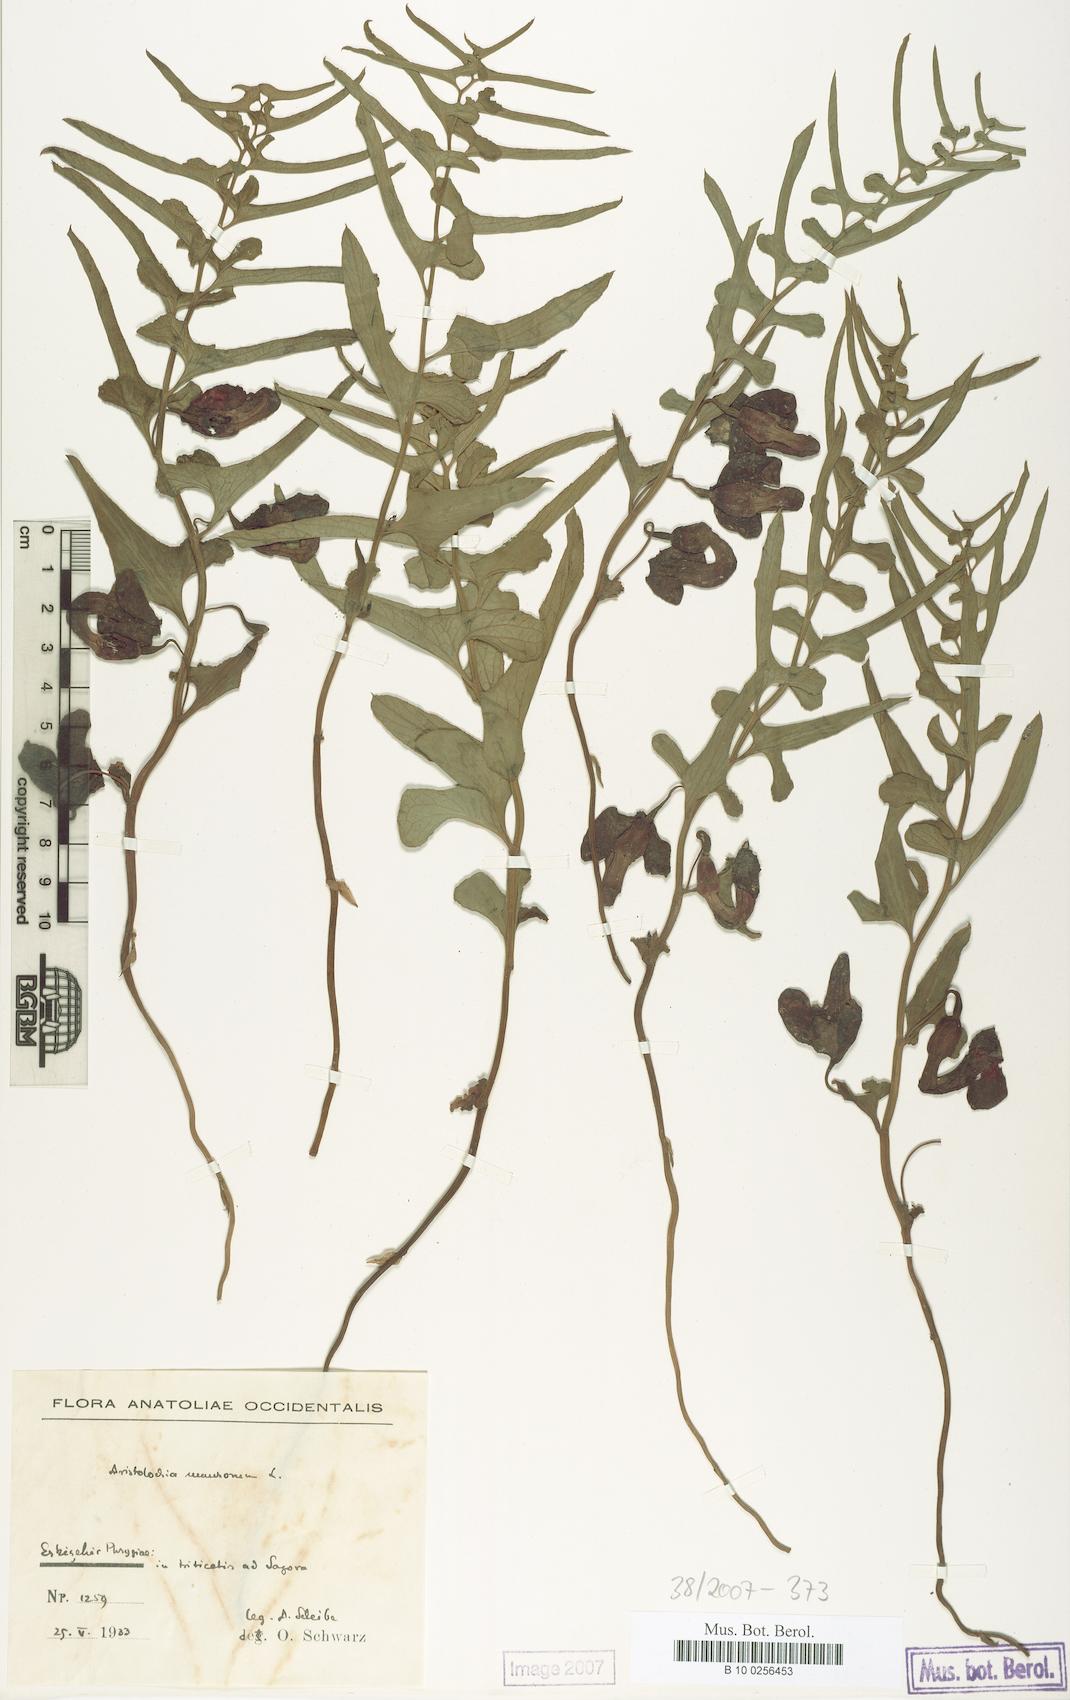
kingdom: Plantae
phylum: Tracheophyta
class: Magnoliopsida
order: Piperales
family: Aristolochiaceae
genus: Aristolochia
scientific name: Aristolochia maurorum
